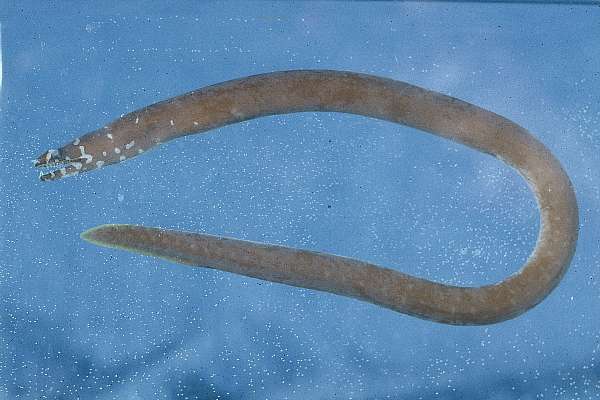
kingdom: Animalia
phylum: Chordata
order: Anguilliformes
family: Muraenidae
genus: Uropterygius
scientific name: Uropterygius kamar
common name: Moon moray
